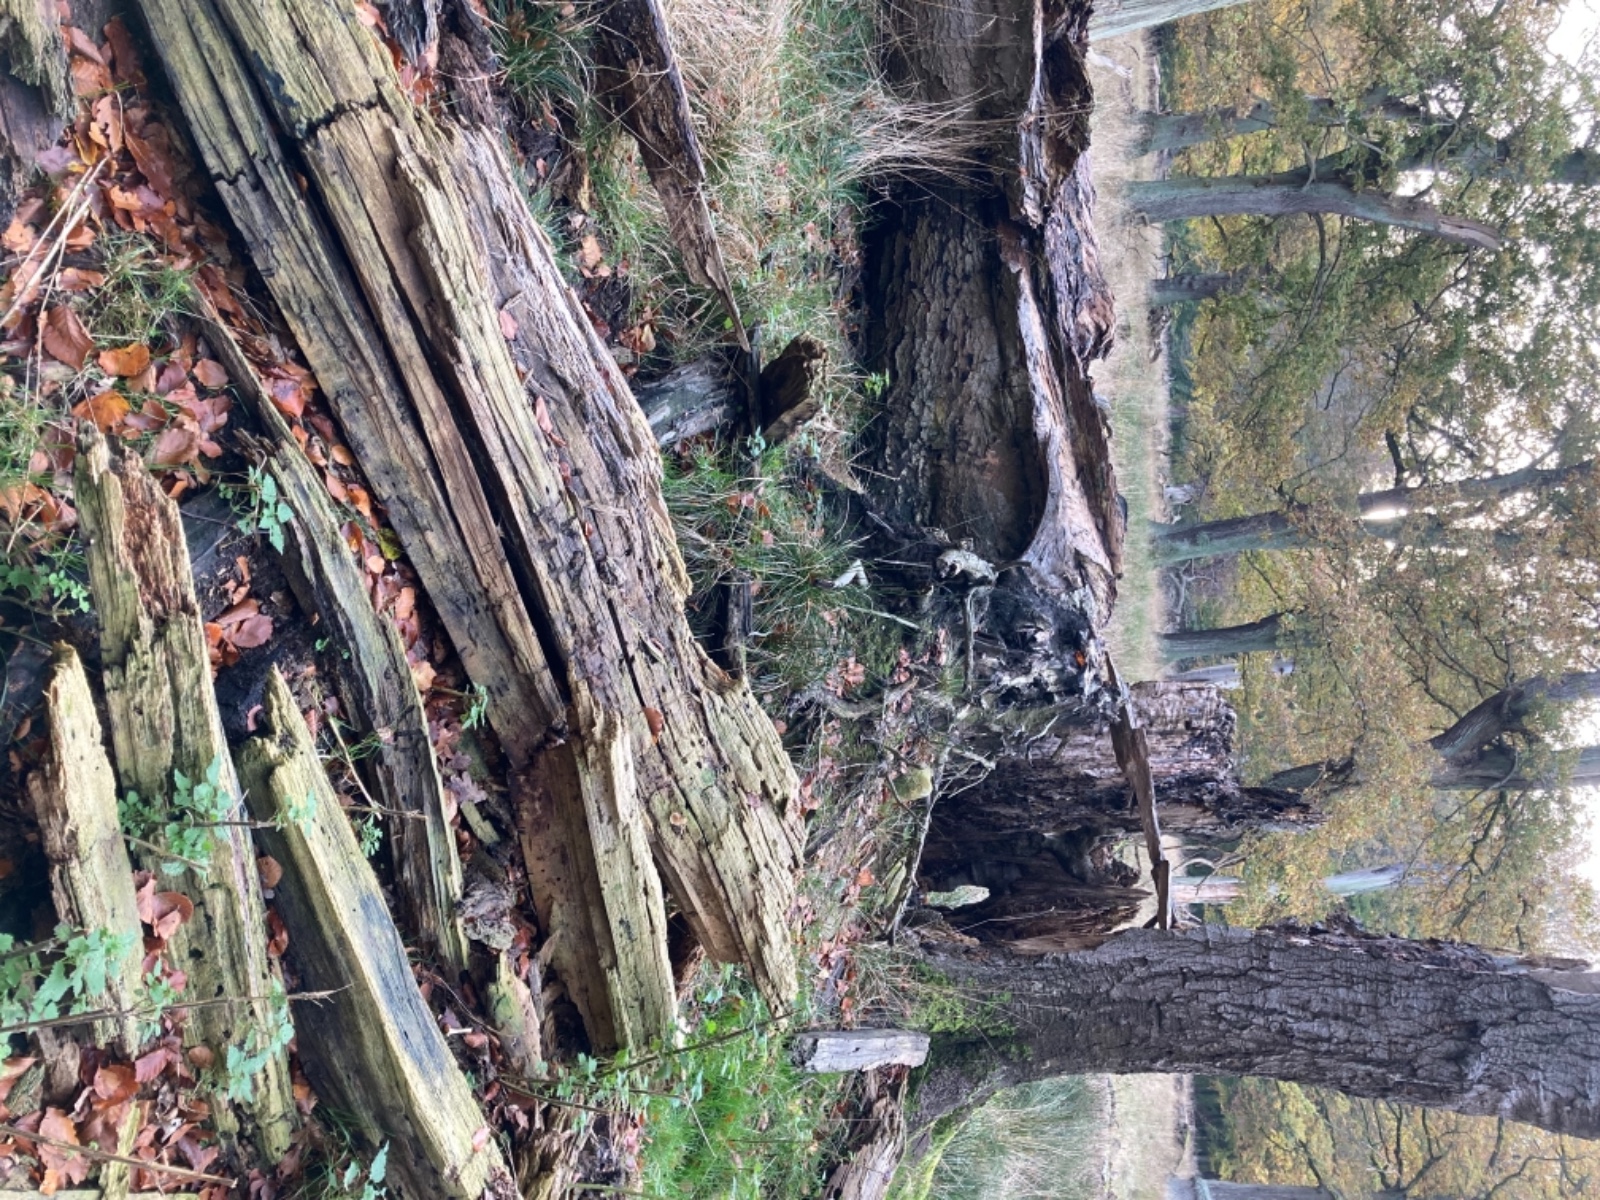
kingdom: Fungi
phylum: Basidiomycota
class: Agaricomycetes
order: Cantharellales
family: Hydnaceae
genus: Multiclavula
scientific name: Multiclavula mucida
